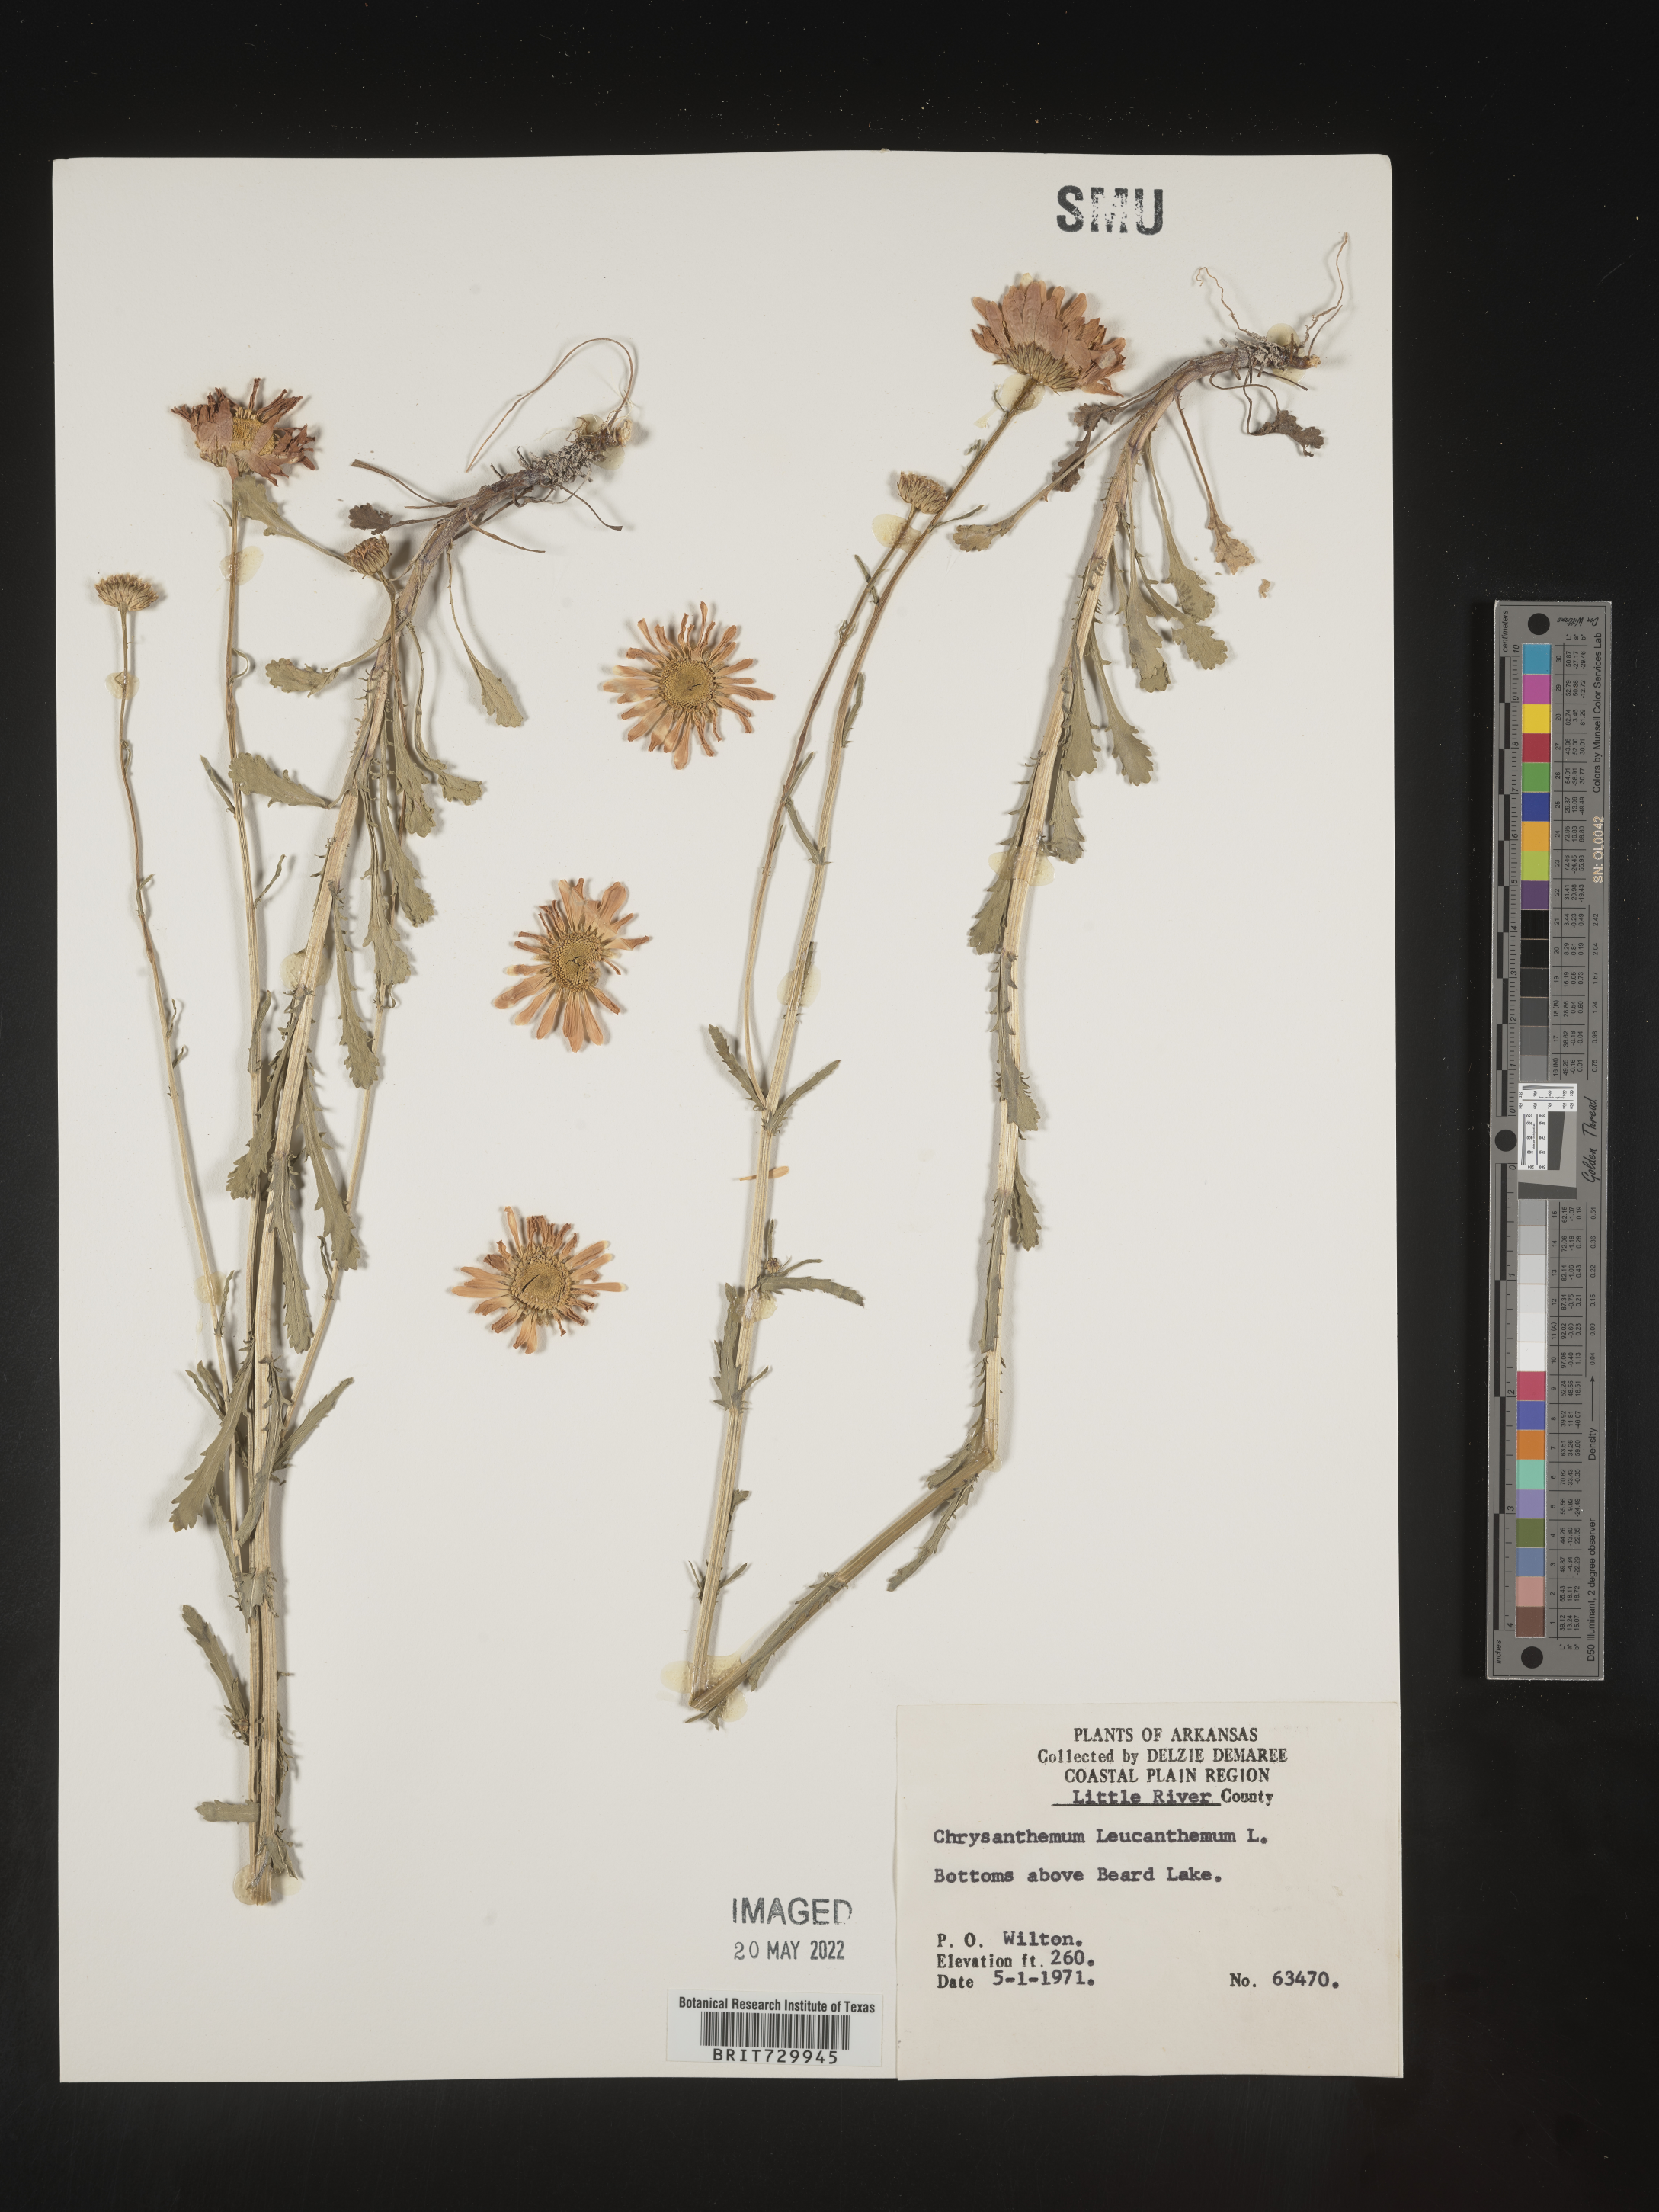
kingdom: Plantae
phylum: Tracheophyta
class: Magnoliopsida
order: Asterales
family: Asteraceae
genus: Leucanthemum
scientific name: Leucanthemum vulgare
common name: Oxeye daisy
